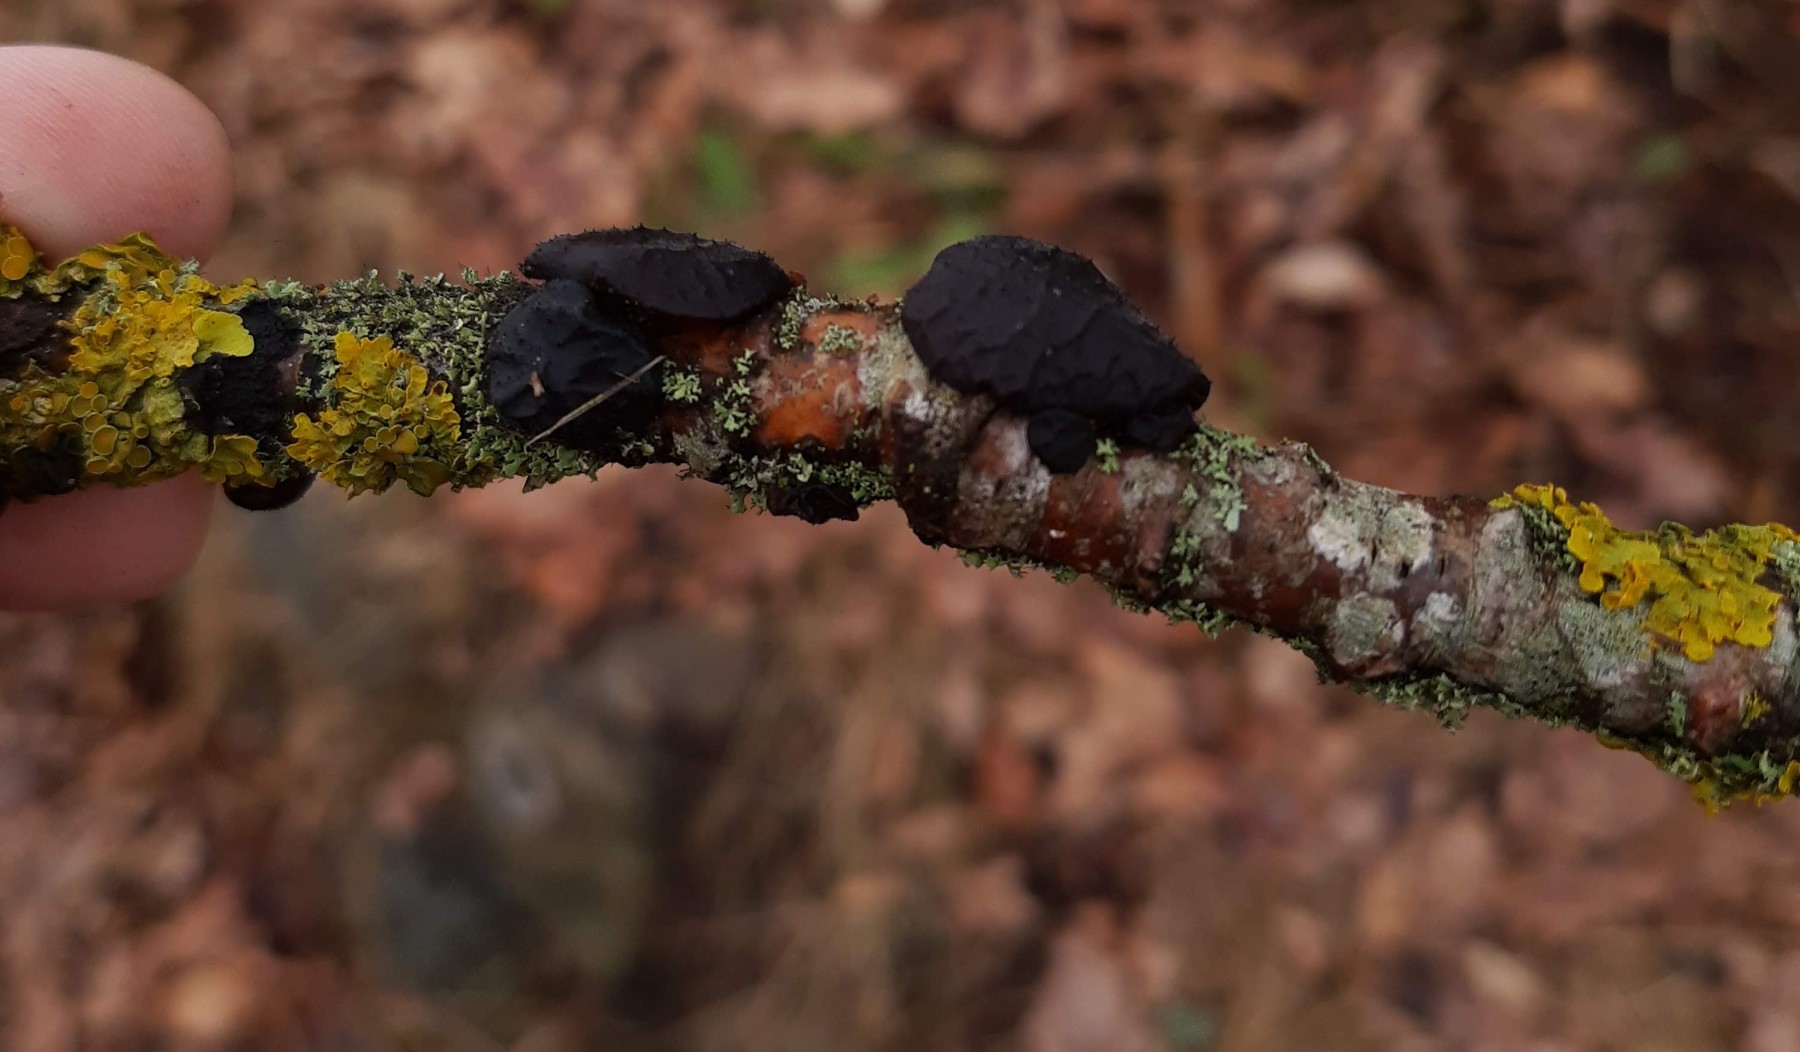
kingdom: Fungi
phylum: Basidiomycota
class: Agaricomycetes
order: Auriculariales
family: Auriculariaceae
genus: Exidia
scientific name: Exidia glandulosa
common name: ege-bævretop
